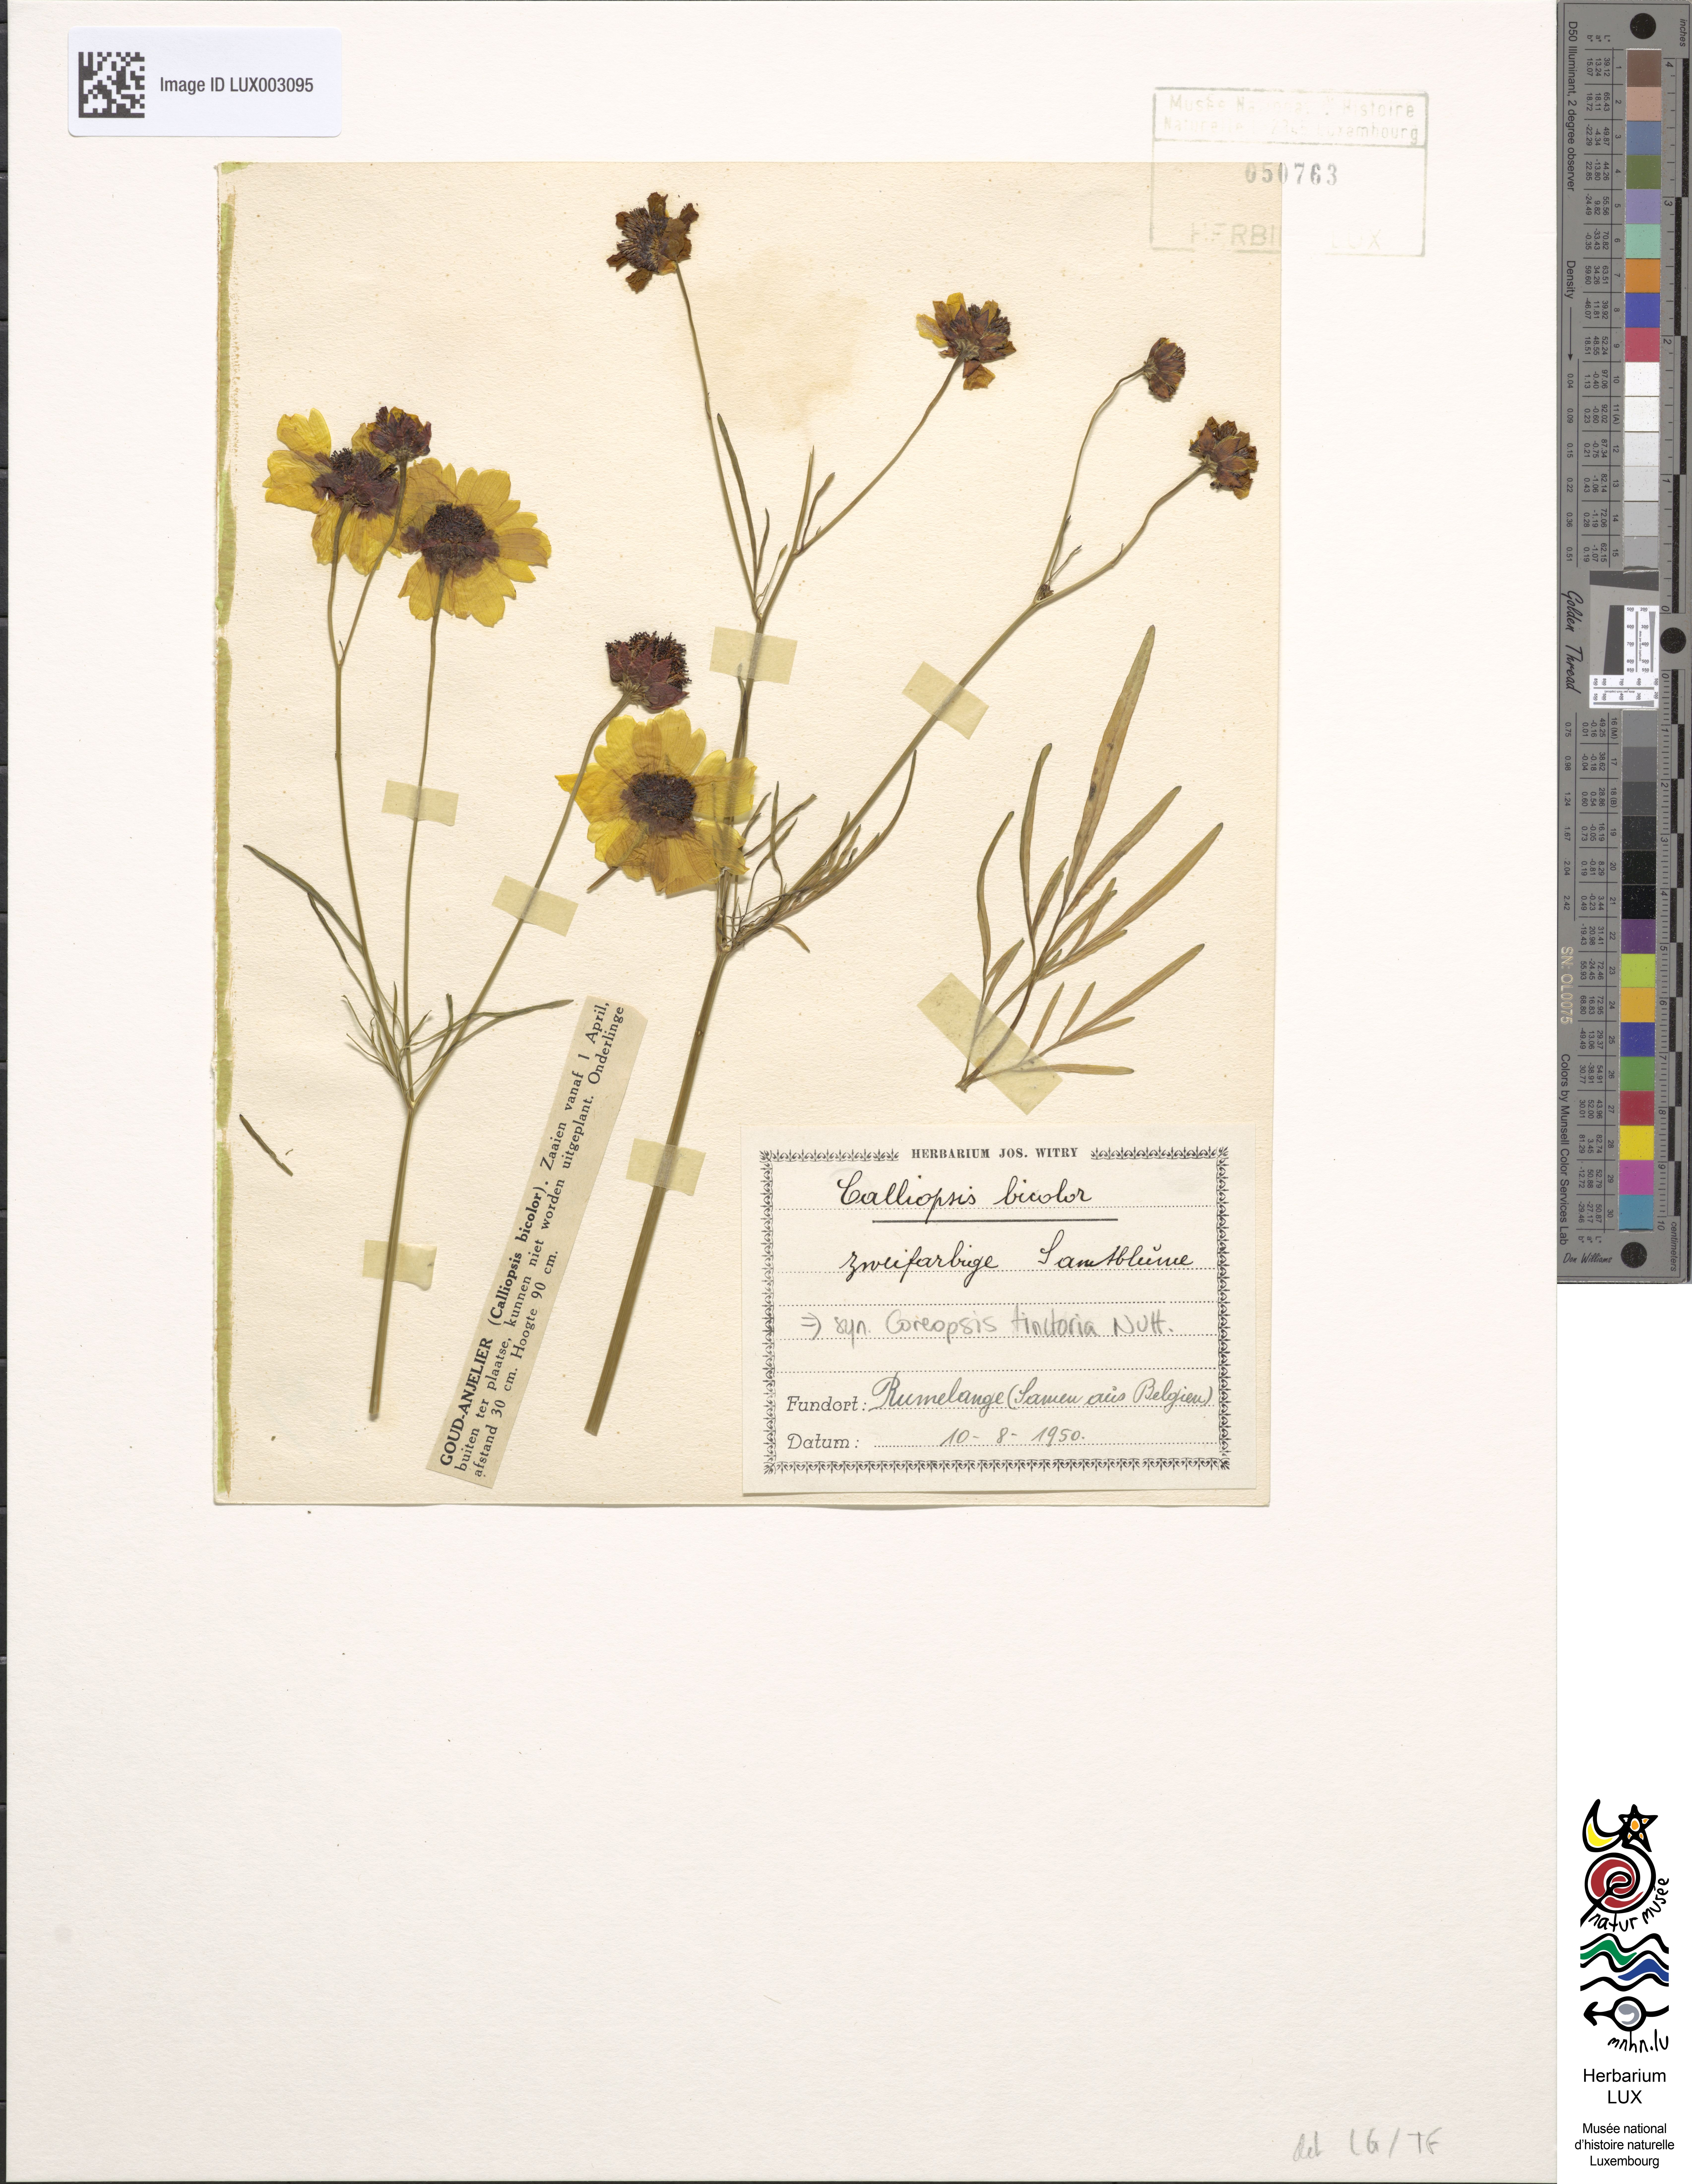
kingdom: Plantae
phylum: Tracheophyta
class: Magnoliopsida
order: Asterales
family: Asteraceae
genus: Coreopsis
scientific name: Coreopsis tinctoria
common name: Garden tickseed
